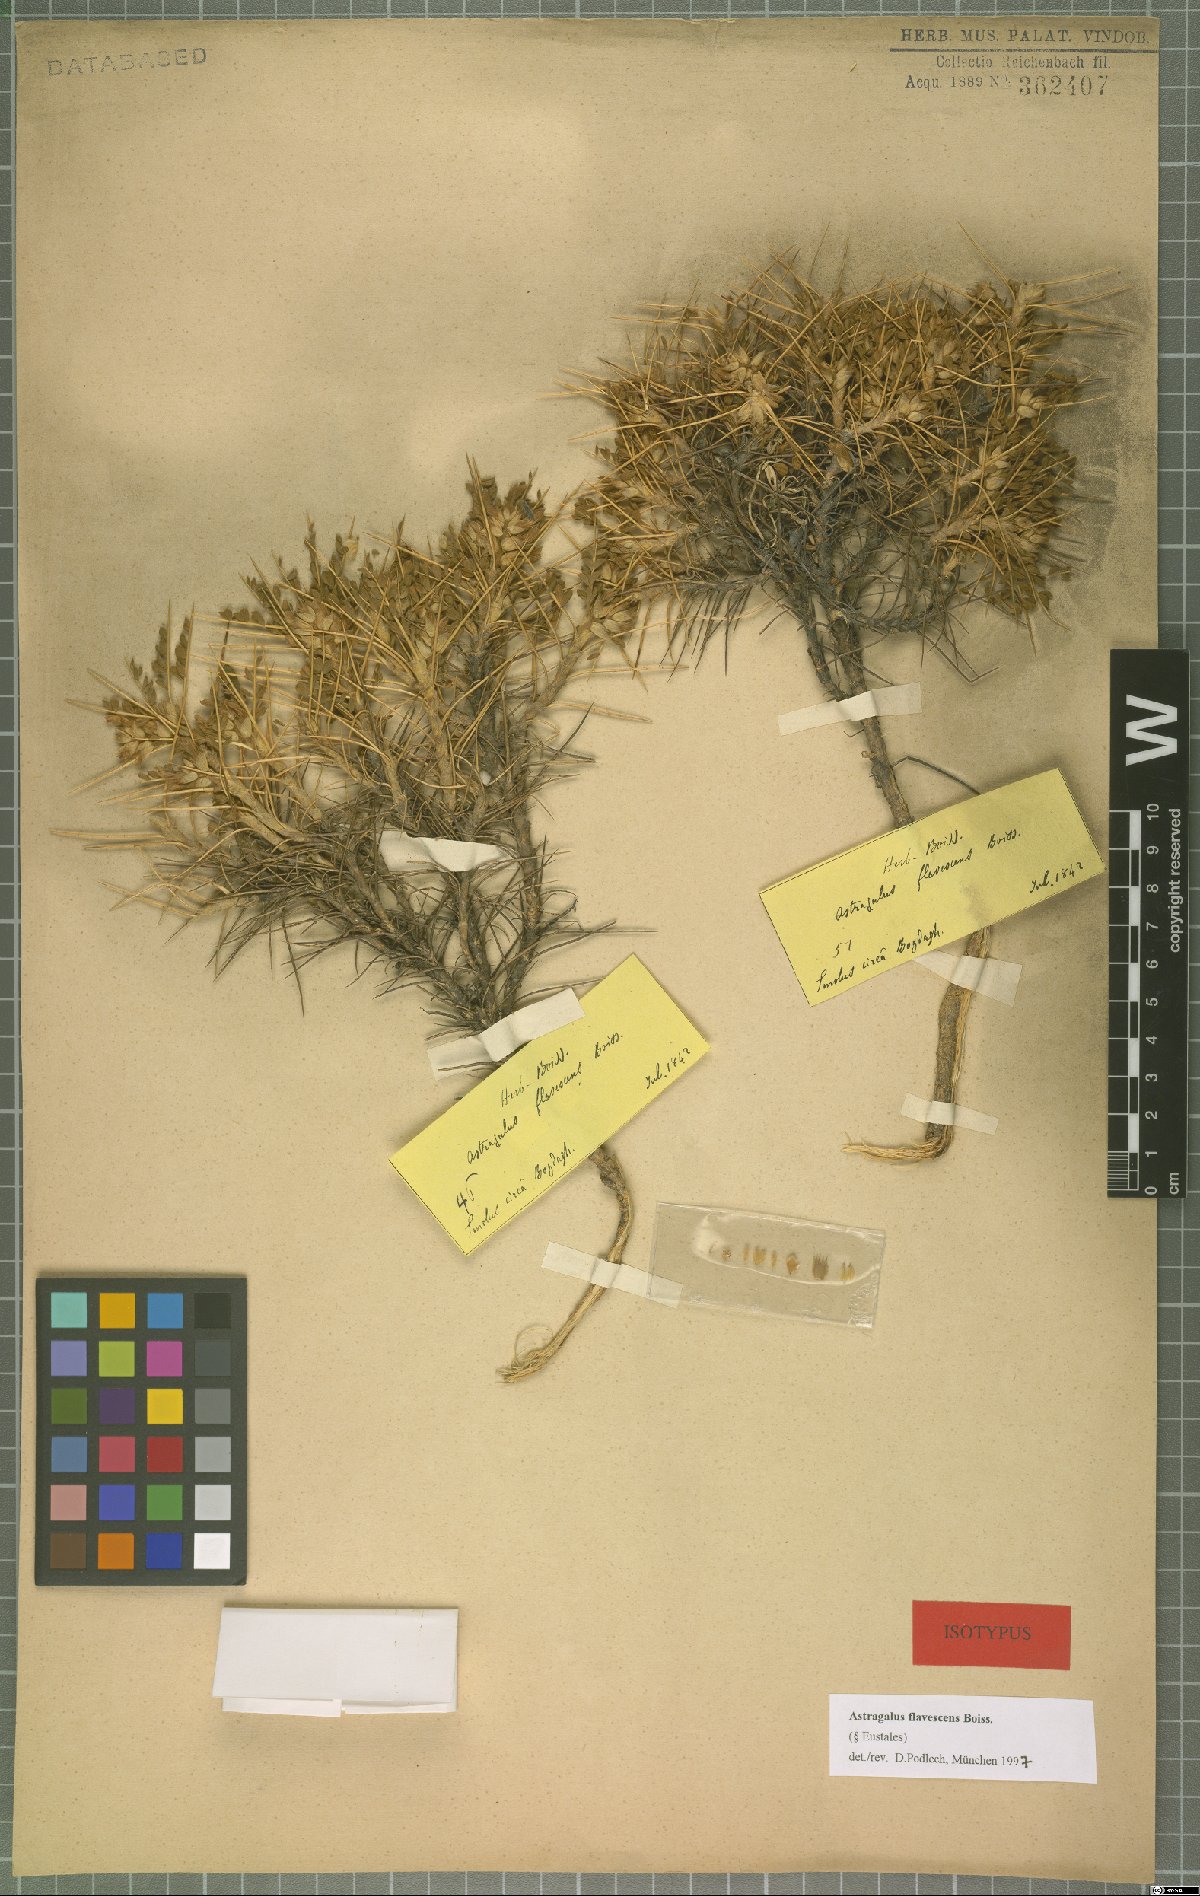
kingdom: Plantae
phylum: Tracheophyta
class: Magnoliopsida
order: Fabales
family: Fabaceae
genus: Astragalus
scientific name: Astragalus flavescens
